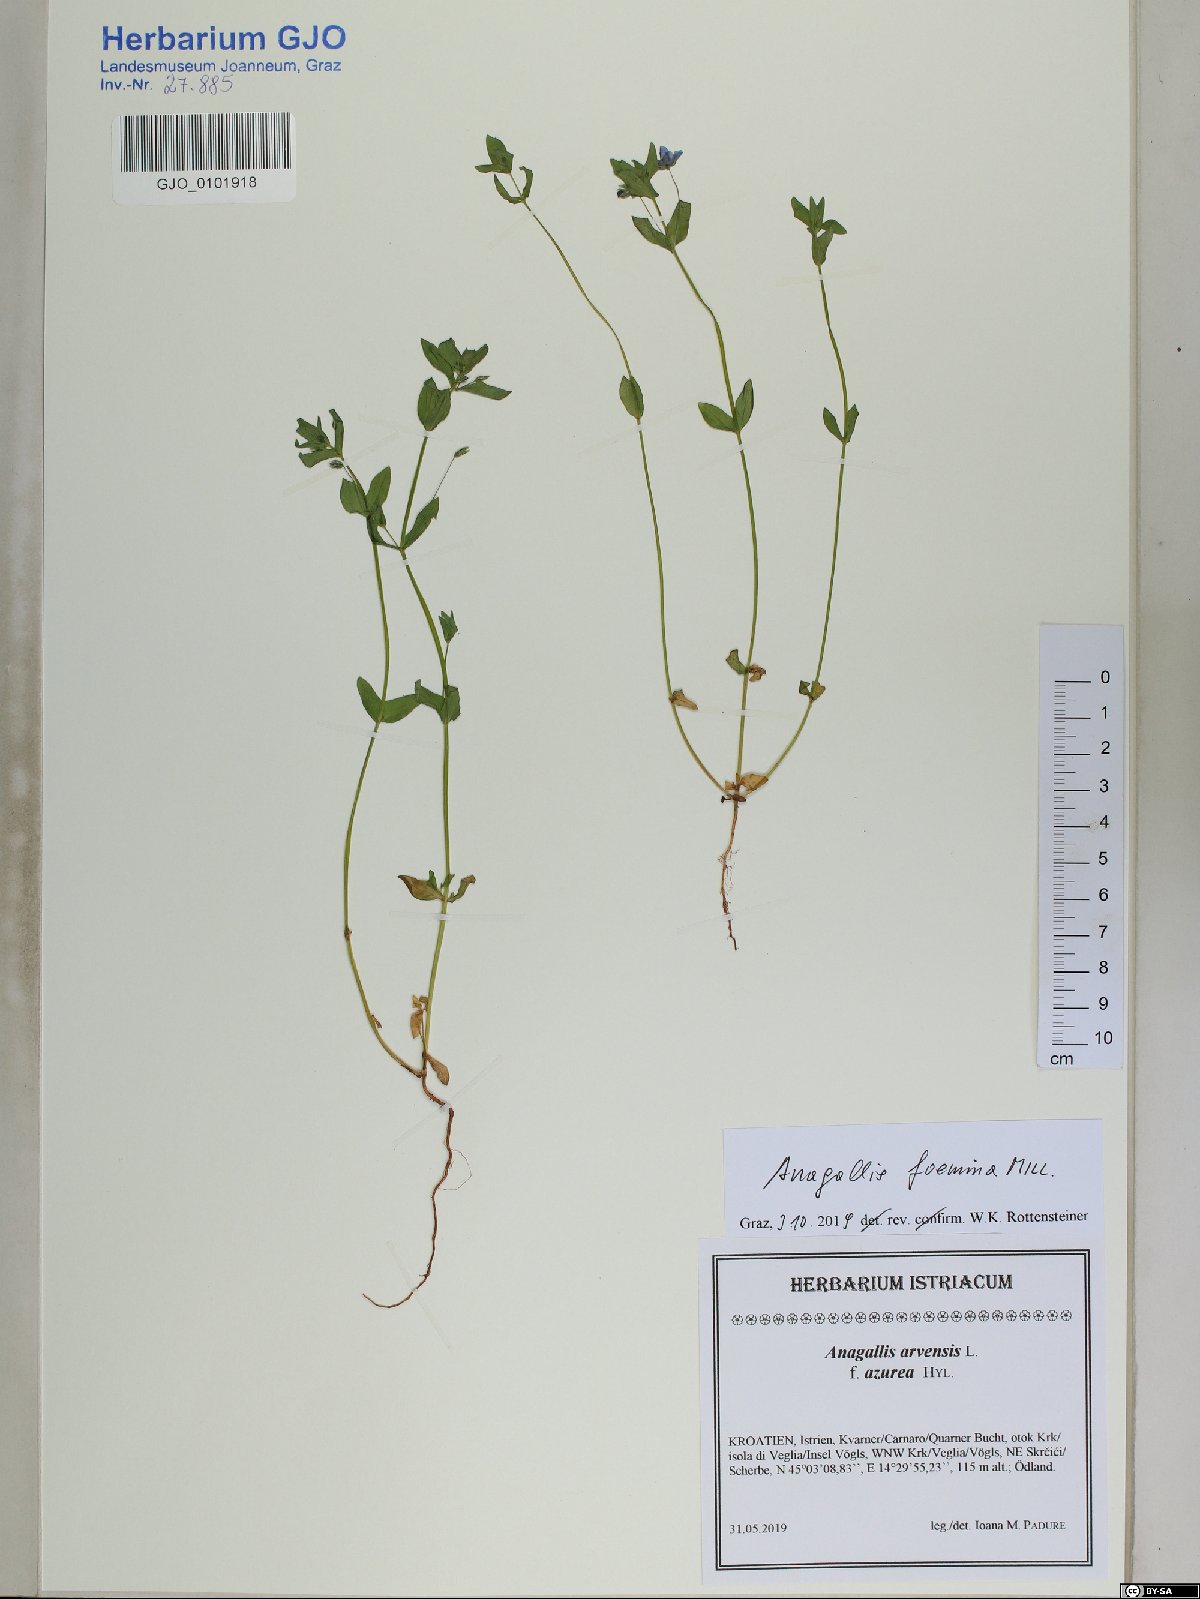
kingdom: Plantae
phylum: Tracheophyta
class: Magnoliopsida
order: Ericales
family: Primulaceae
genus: Lysimachia
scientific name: Lysimachia foemina
